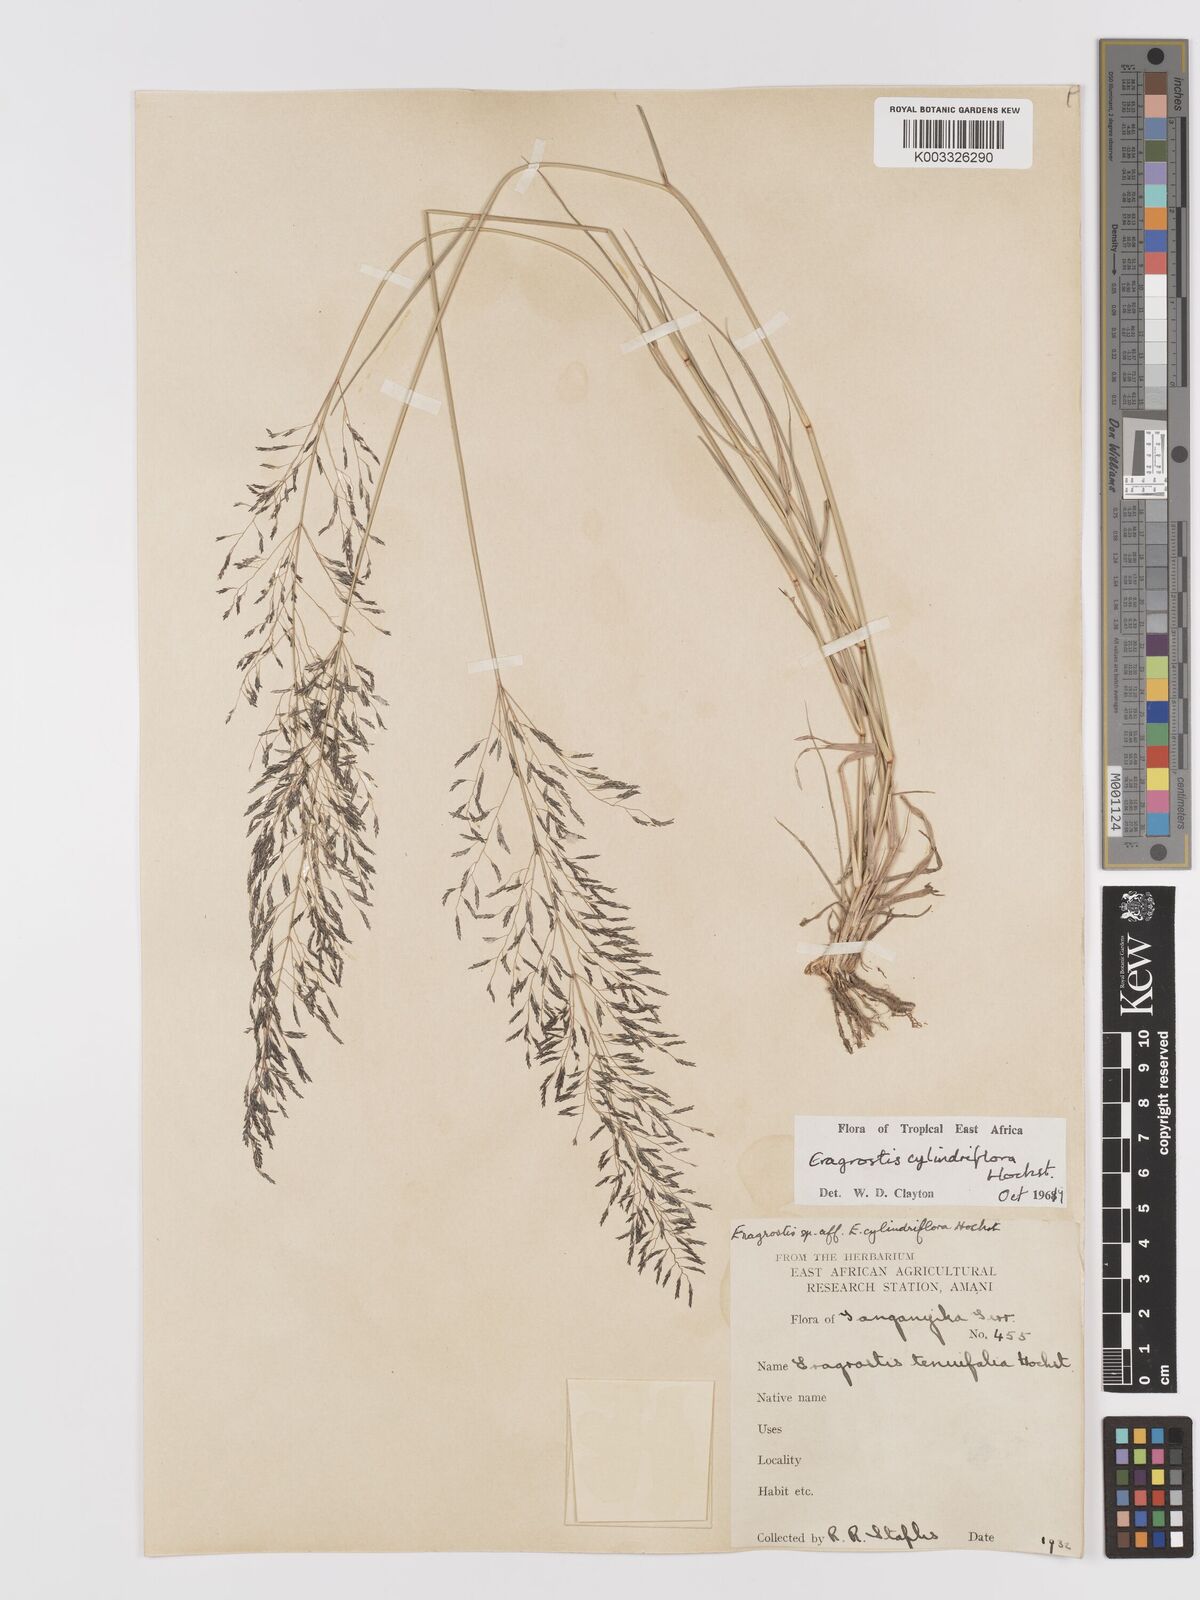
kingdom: Plantae
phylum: Tracheophyta
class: Liliopsida
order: Poales
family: Poaceae
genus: Eragrostis
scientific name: Eragrostis cylindriflora
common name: Cylinderflower lovegrass
